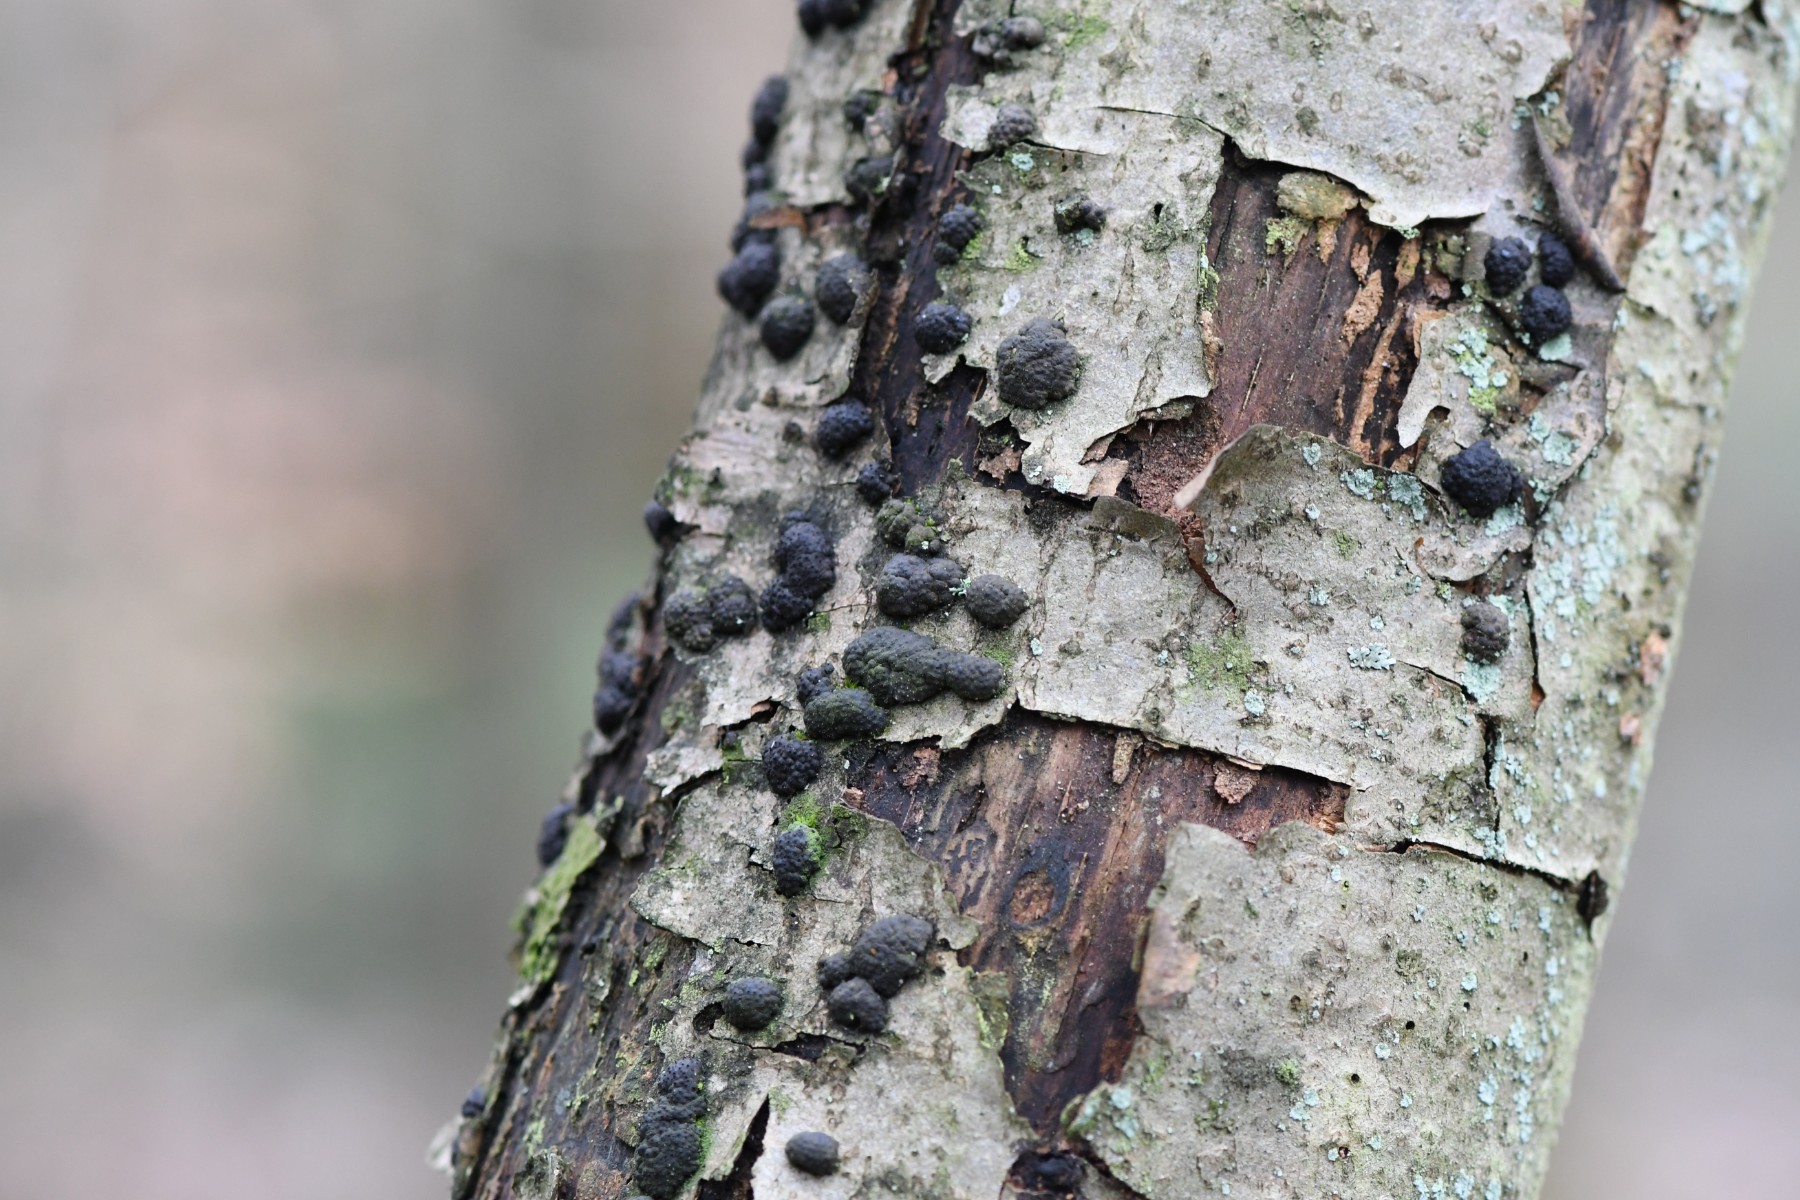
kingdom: Fungi
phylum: Ascomycota
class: Sordariomycetes
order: Xylariales
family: Hypoxylaceae
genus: Jackrogersella
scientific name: Jackrogersella multiformis
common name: foranderlig kulbær
